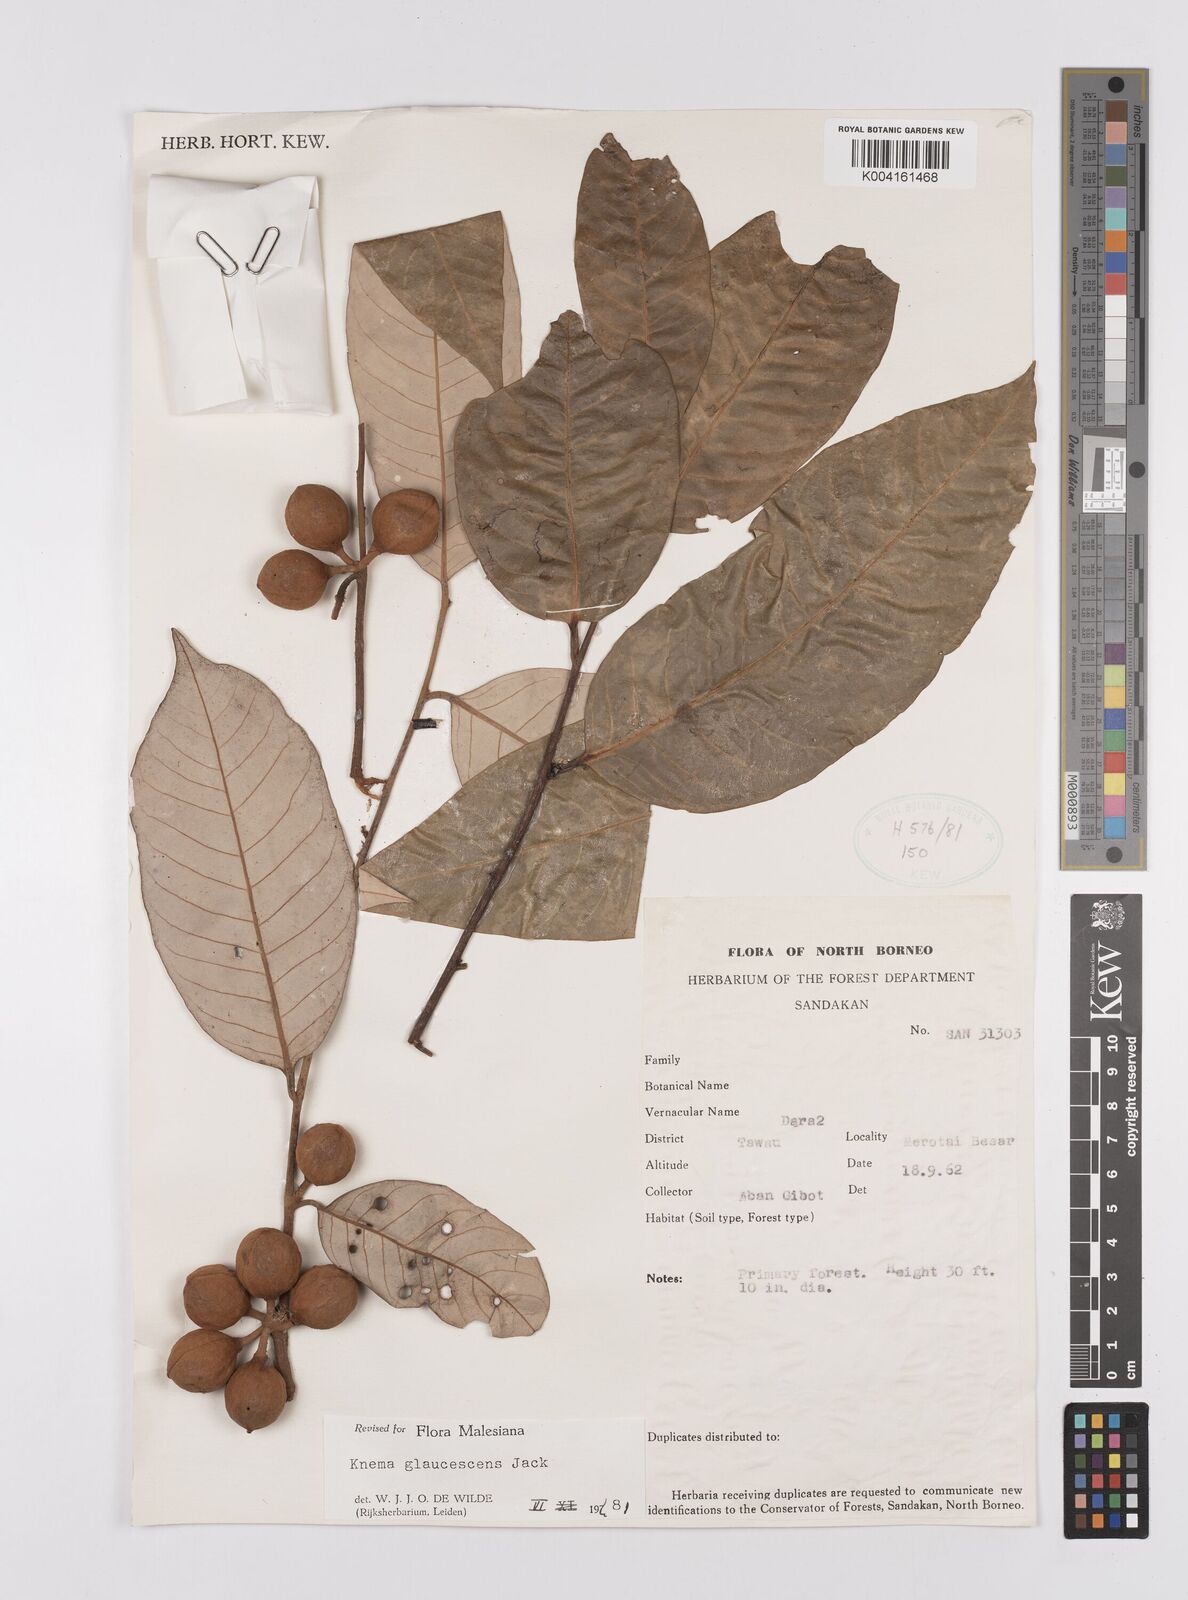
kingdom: Plantae
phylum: Tracheophyta
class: Magnoliopsida
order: Magnoliales
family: Myristicaceae
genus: Knema
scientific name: Knema
